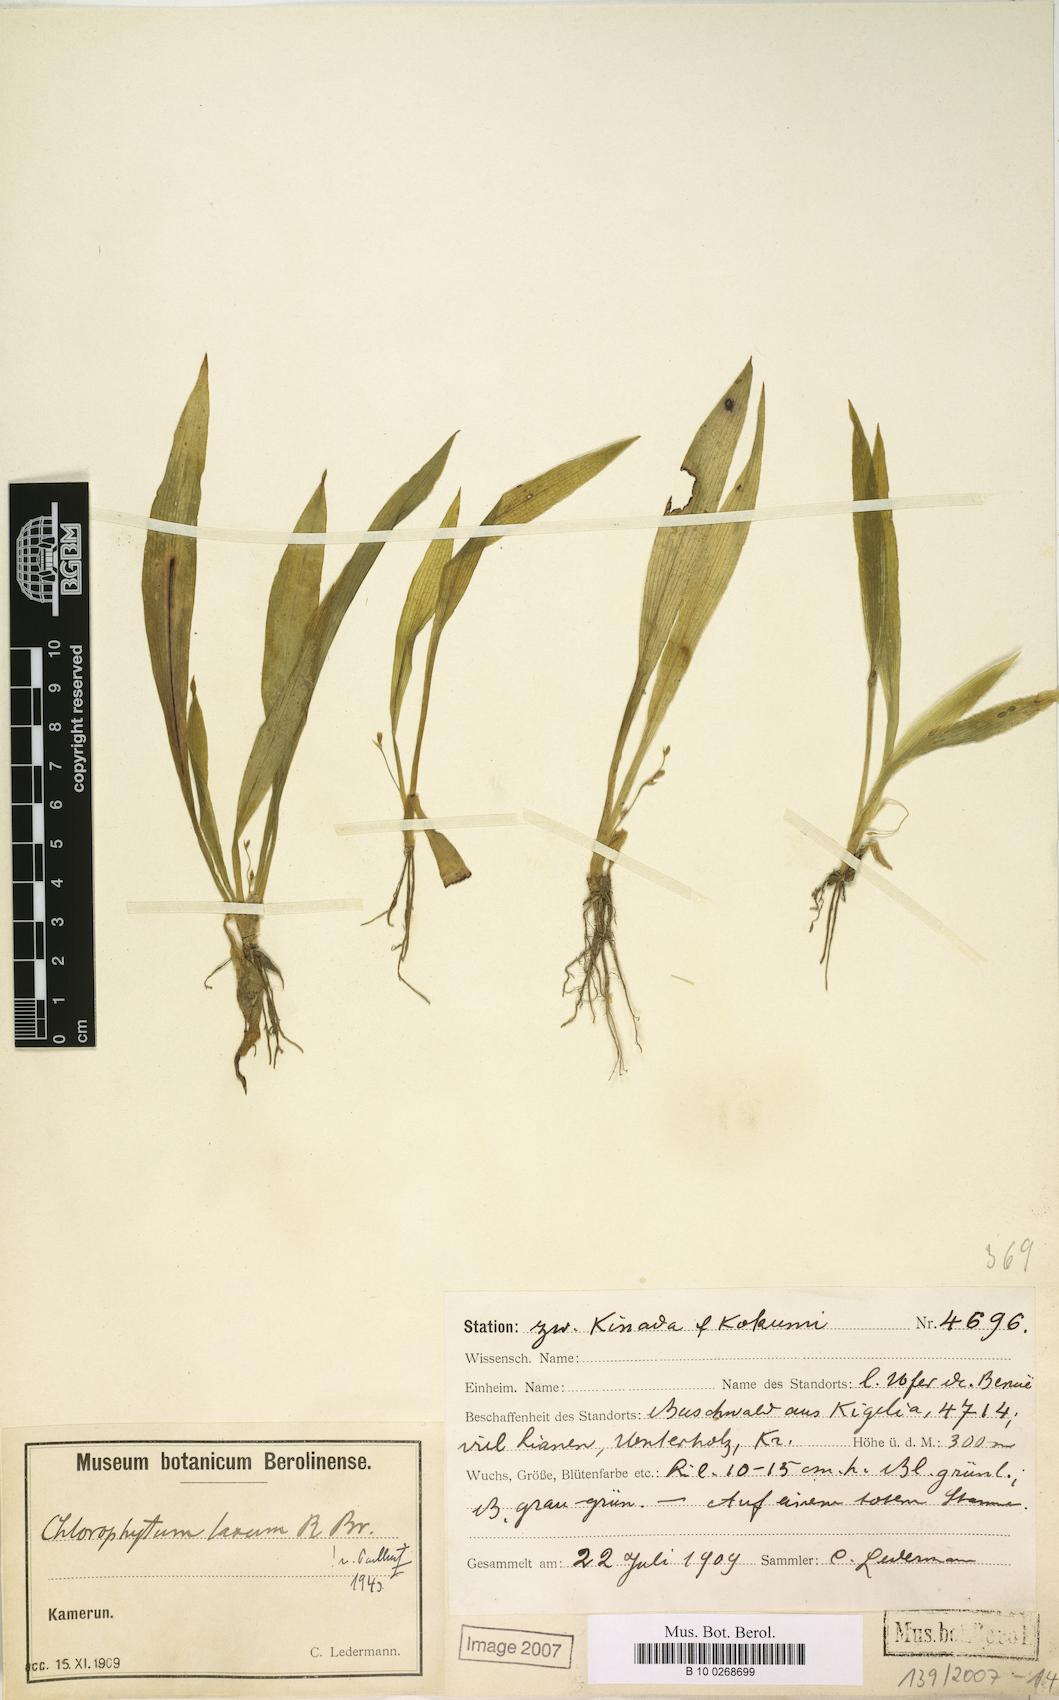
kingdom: Plantae
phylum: Tracheophyta
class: Liliopsida
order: Asparagales
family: Asparagaceae
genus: Chlorophytum
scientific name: Chlorophytum debile
